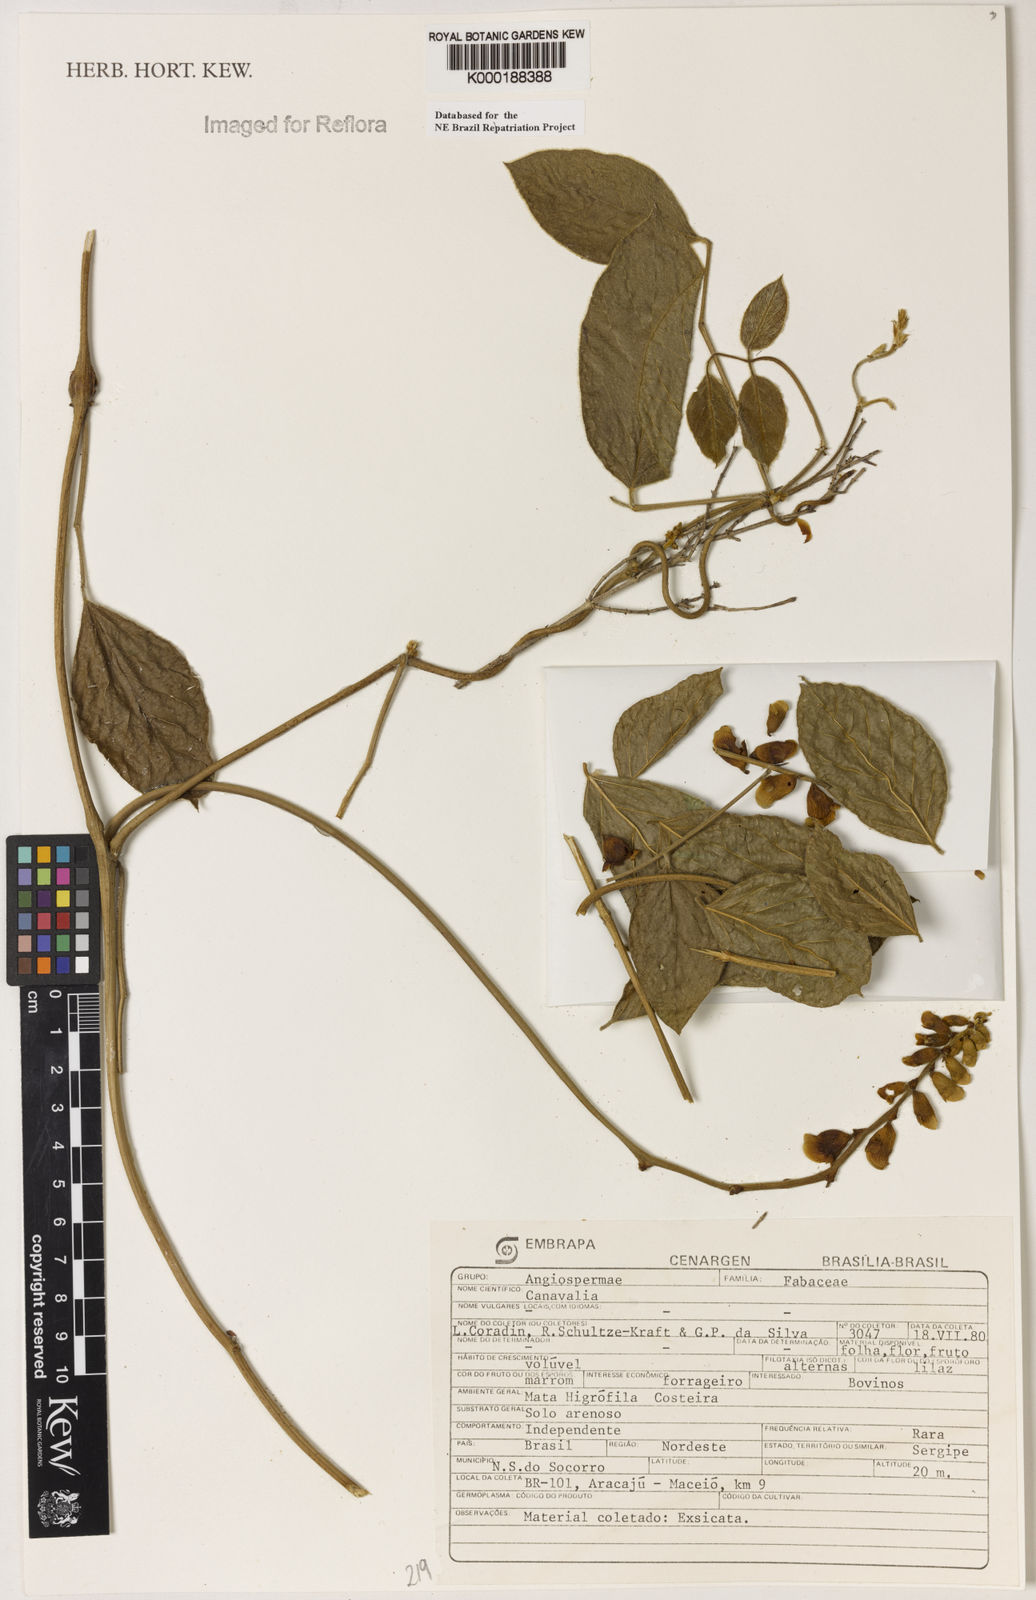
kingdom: Plantae
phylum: Tracheophyta
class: Magnoliopsida
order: Fabales
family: Fabaceae
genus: Canavalia
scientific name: Canavalia
